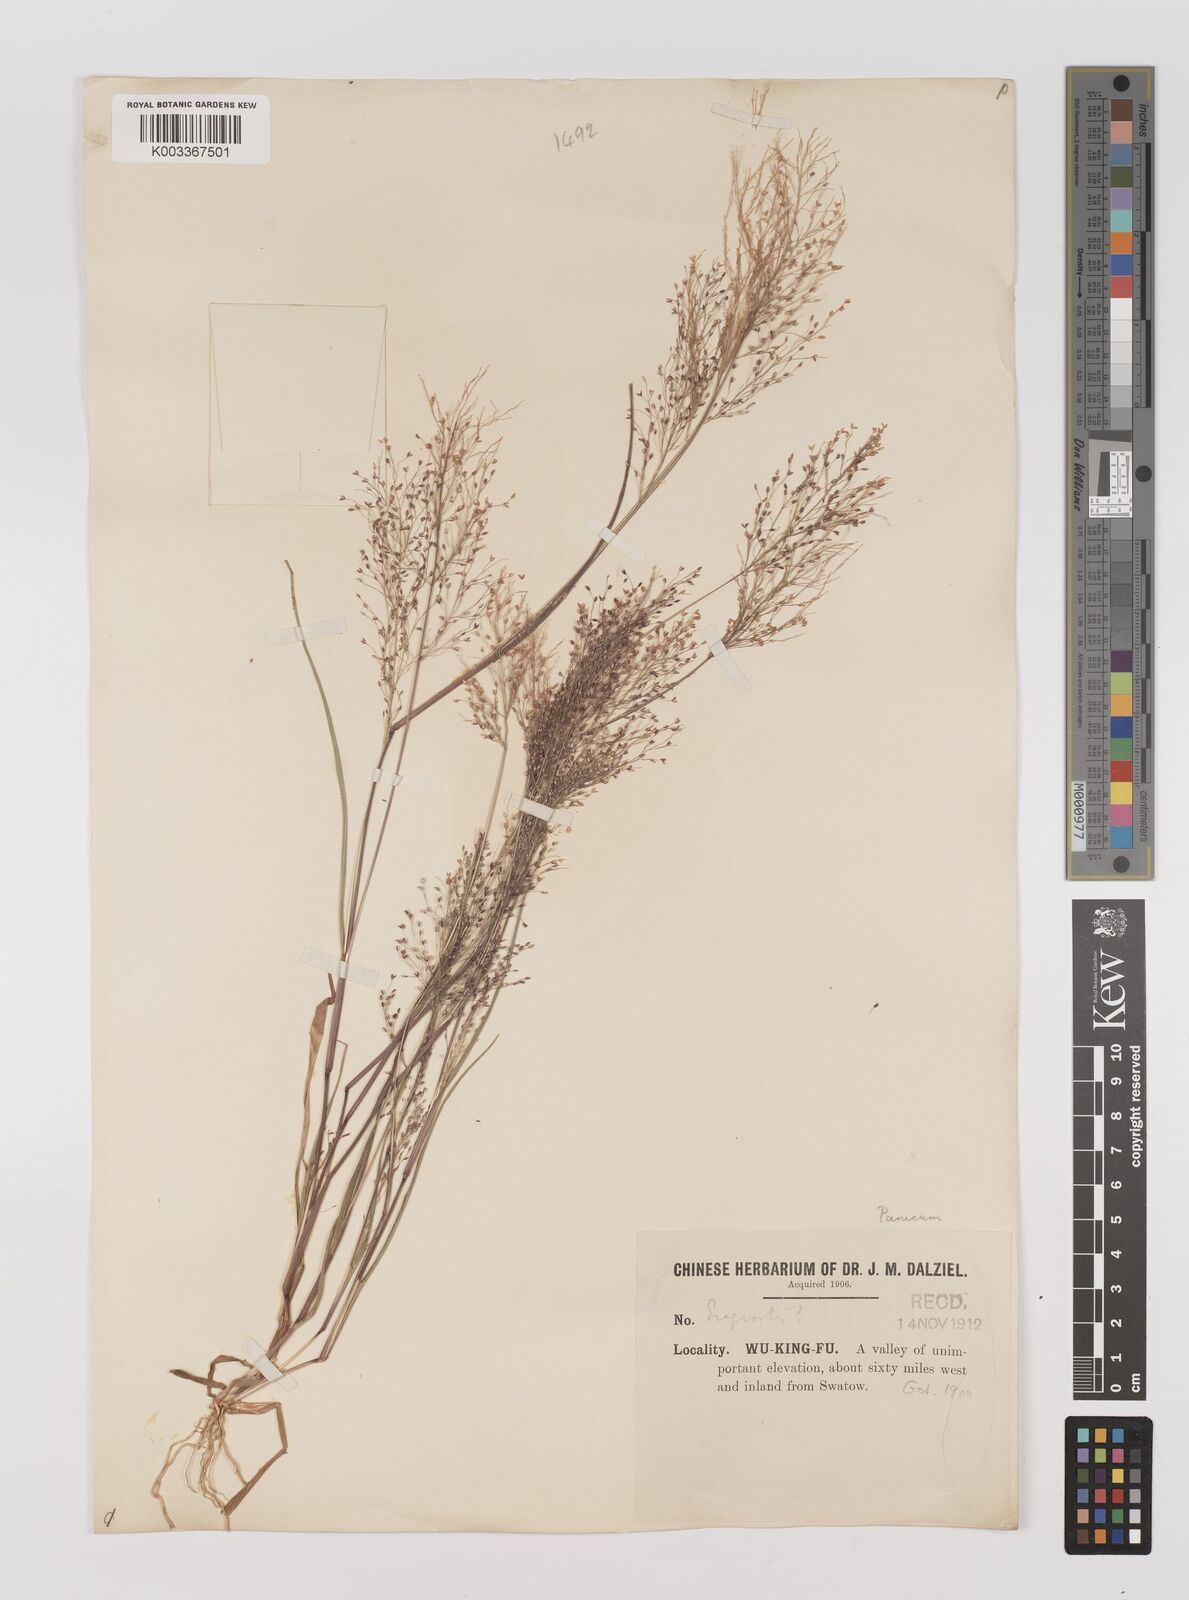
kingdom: Plantae
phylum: Tracheophyta
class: Liliopsida
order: Poales
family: Poaceae
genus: Panicum
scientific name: Panicum
